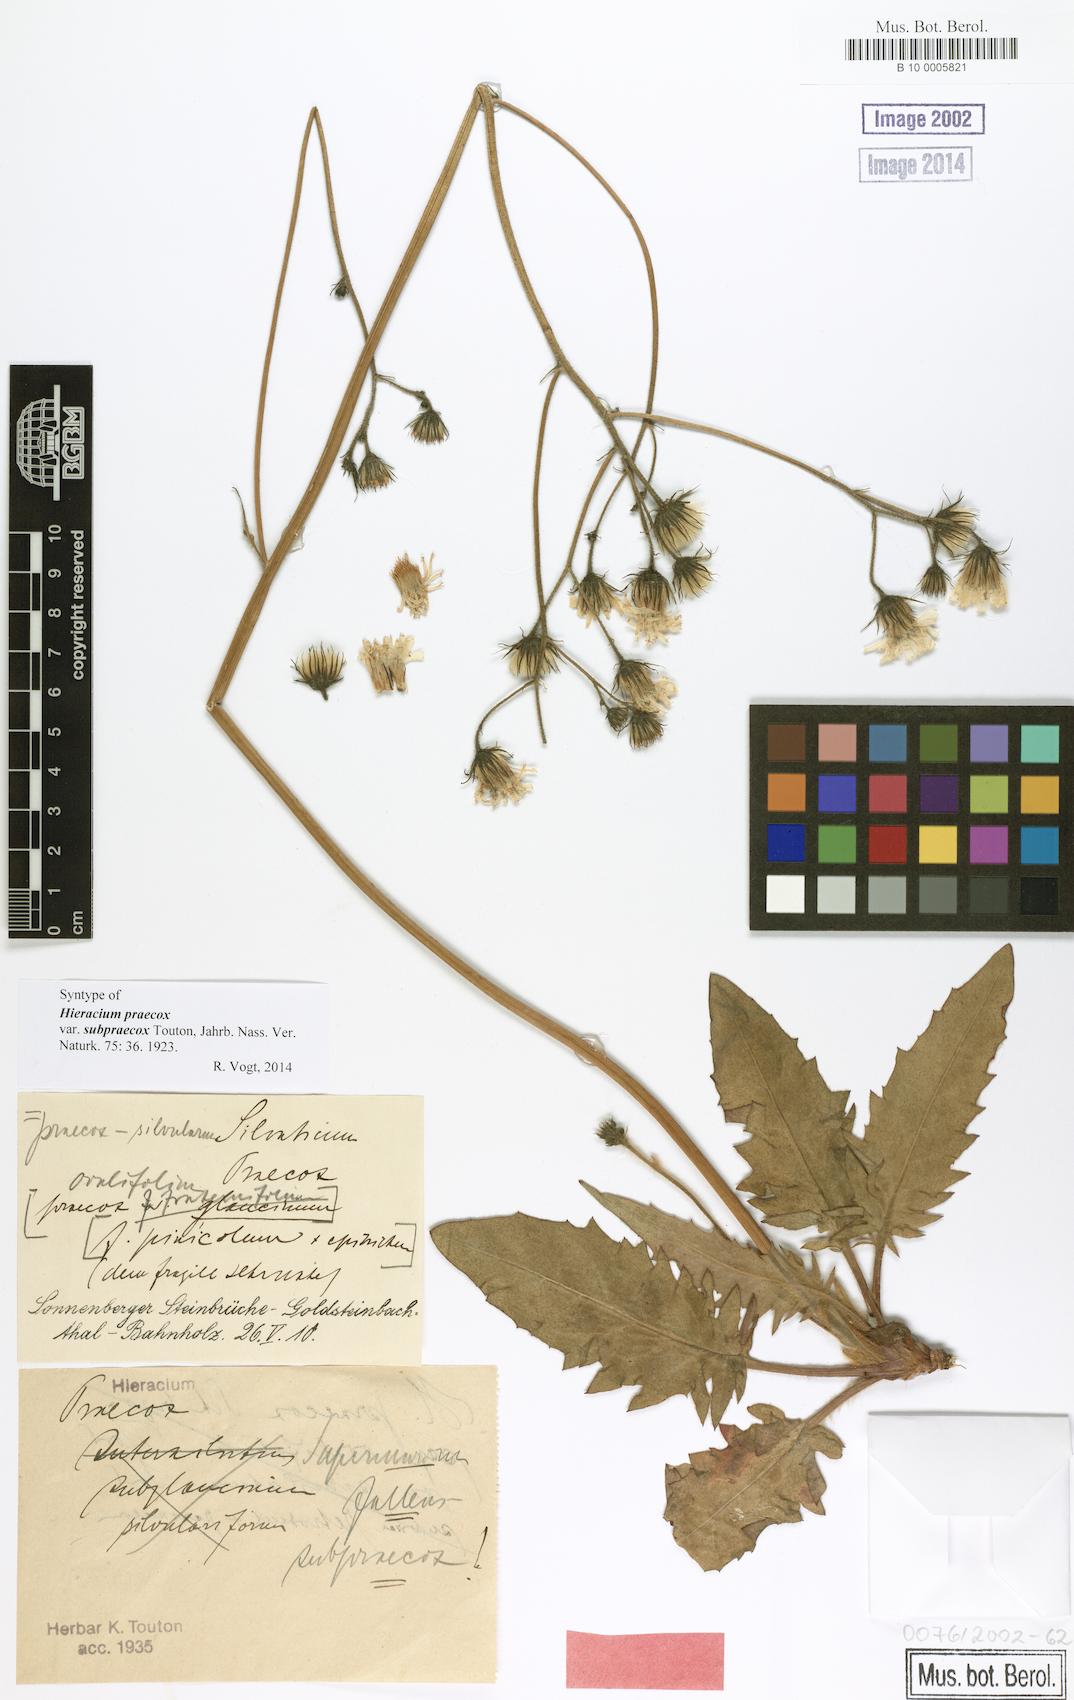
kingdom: Plantae
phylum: Tracheophyta
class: Magnoliopsida
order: Asterales
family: Asteraceae
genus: Hieracium
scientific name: Hieracium praecox
